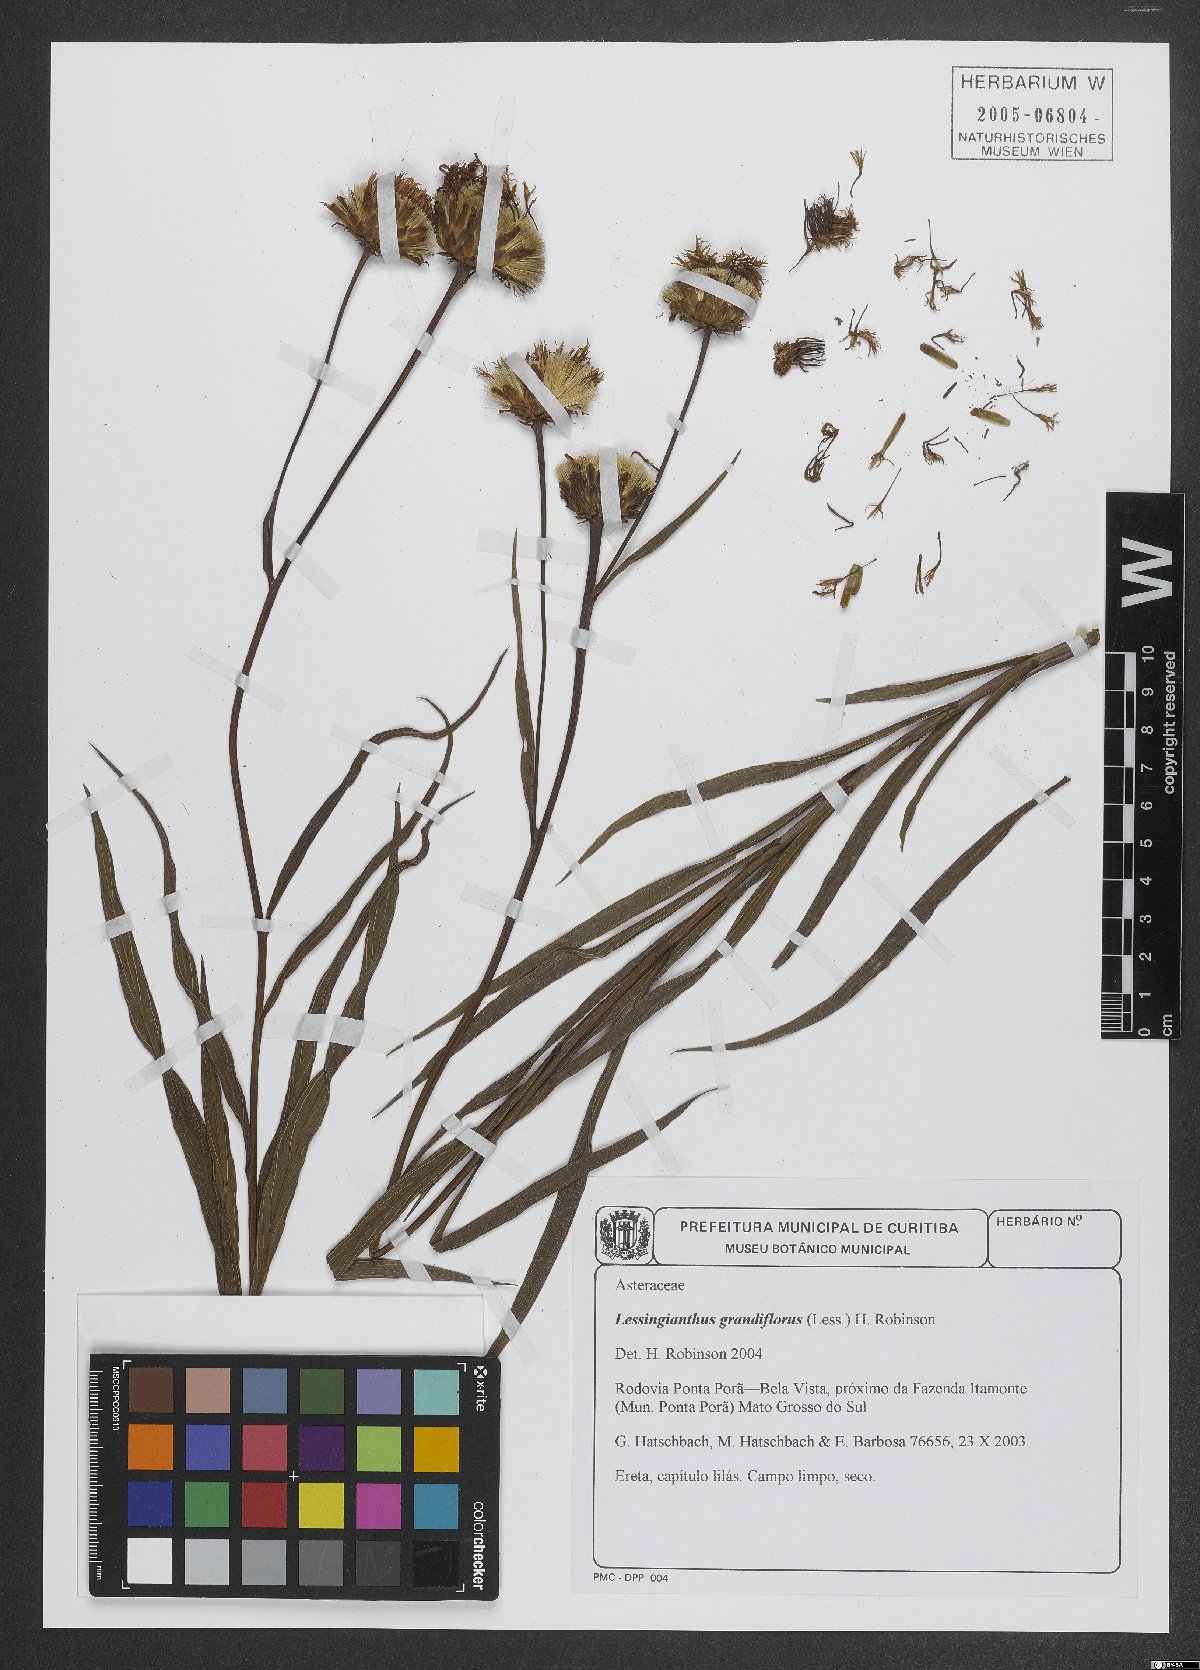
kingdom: Plantae
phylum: Tracheophyta
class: Magnoliopsida
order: Asterales
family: Asteraceae
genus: Lessingianthus
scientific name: Lessingianthus grandiflorus
